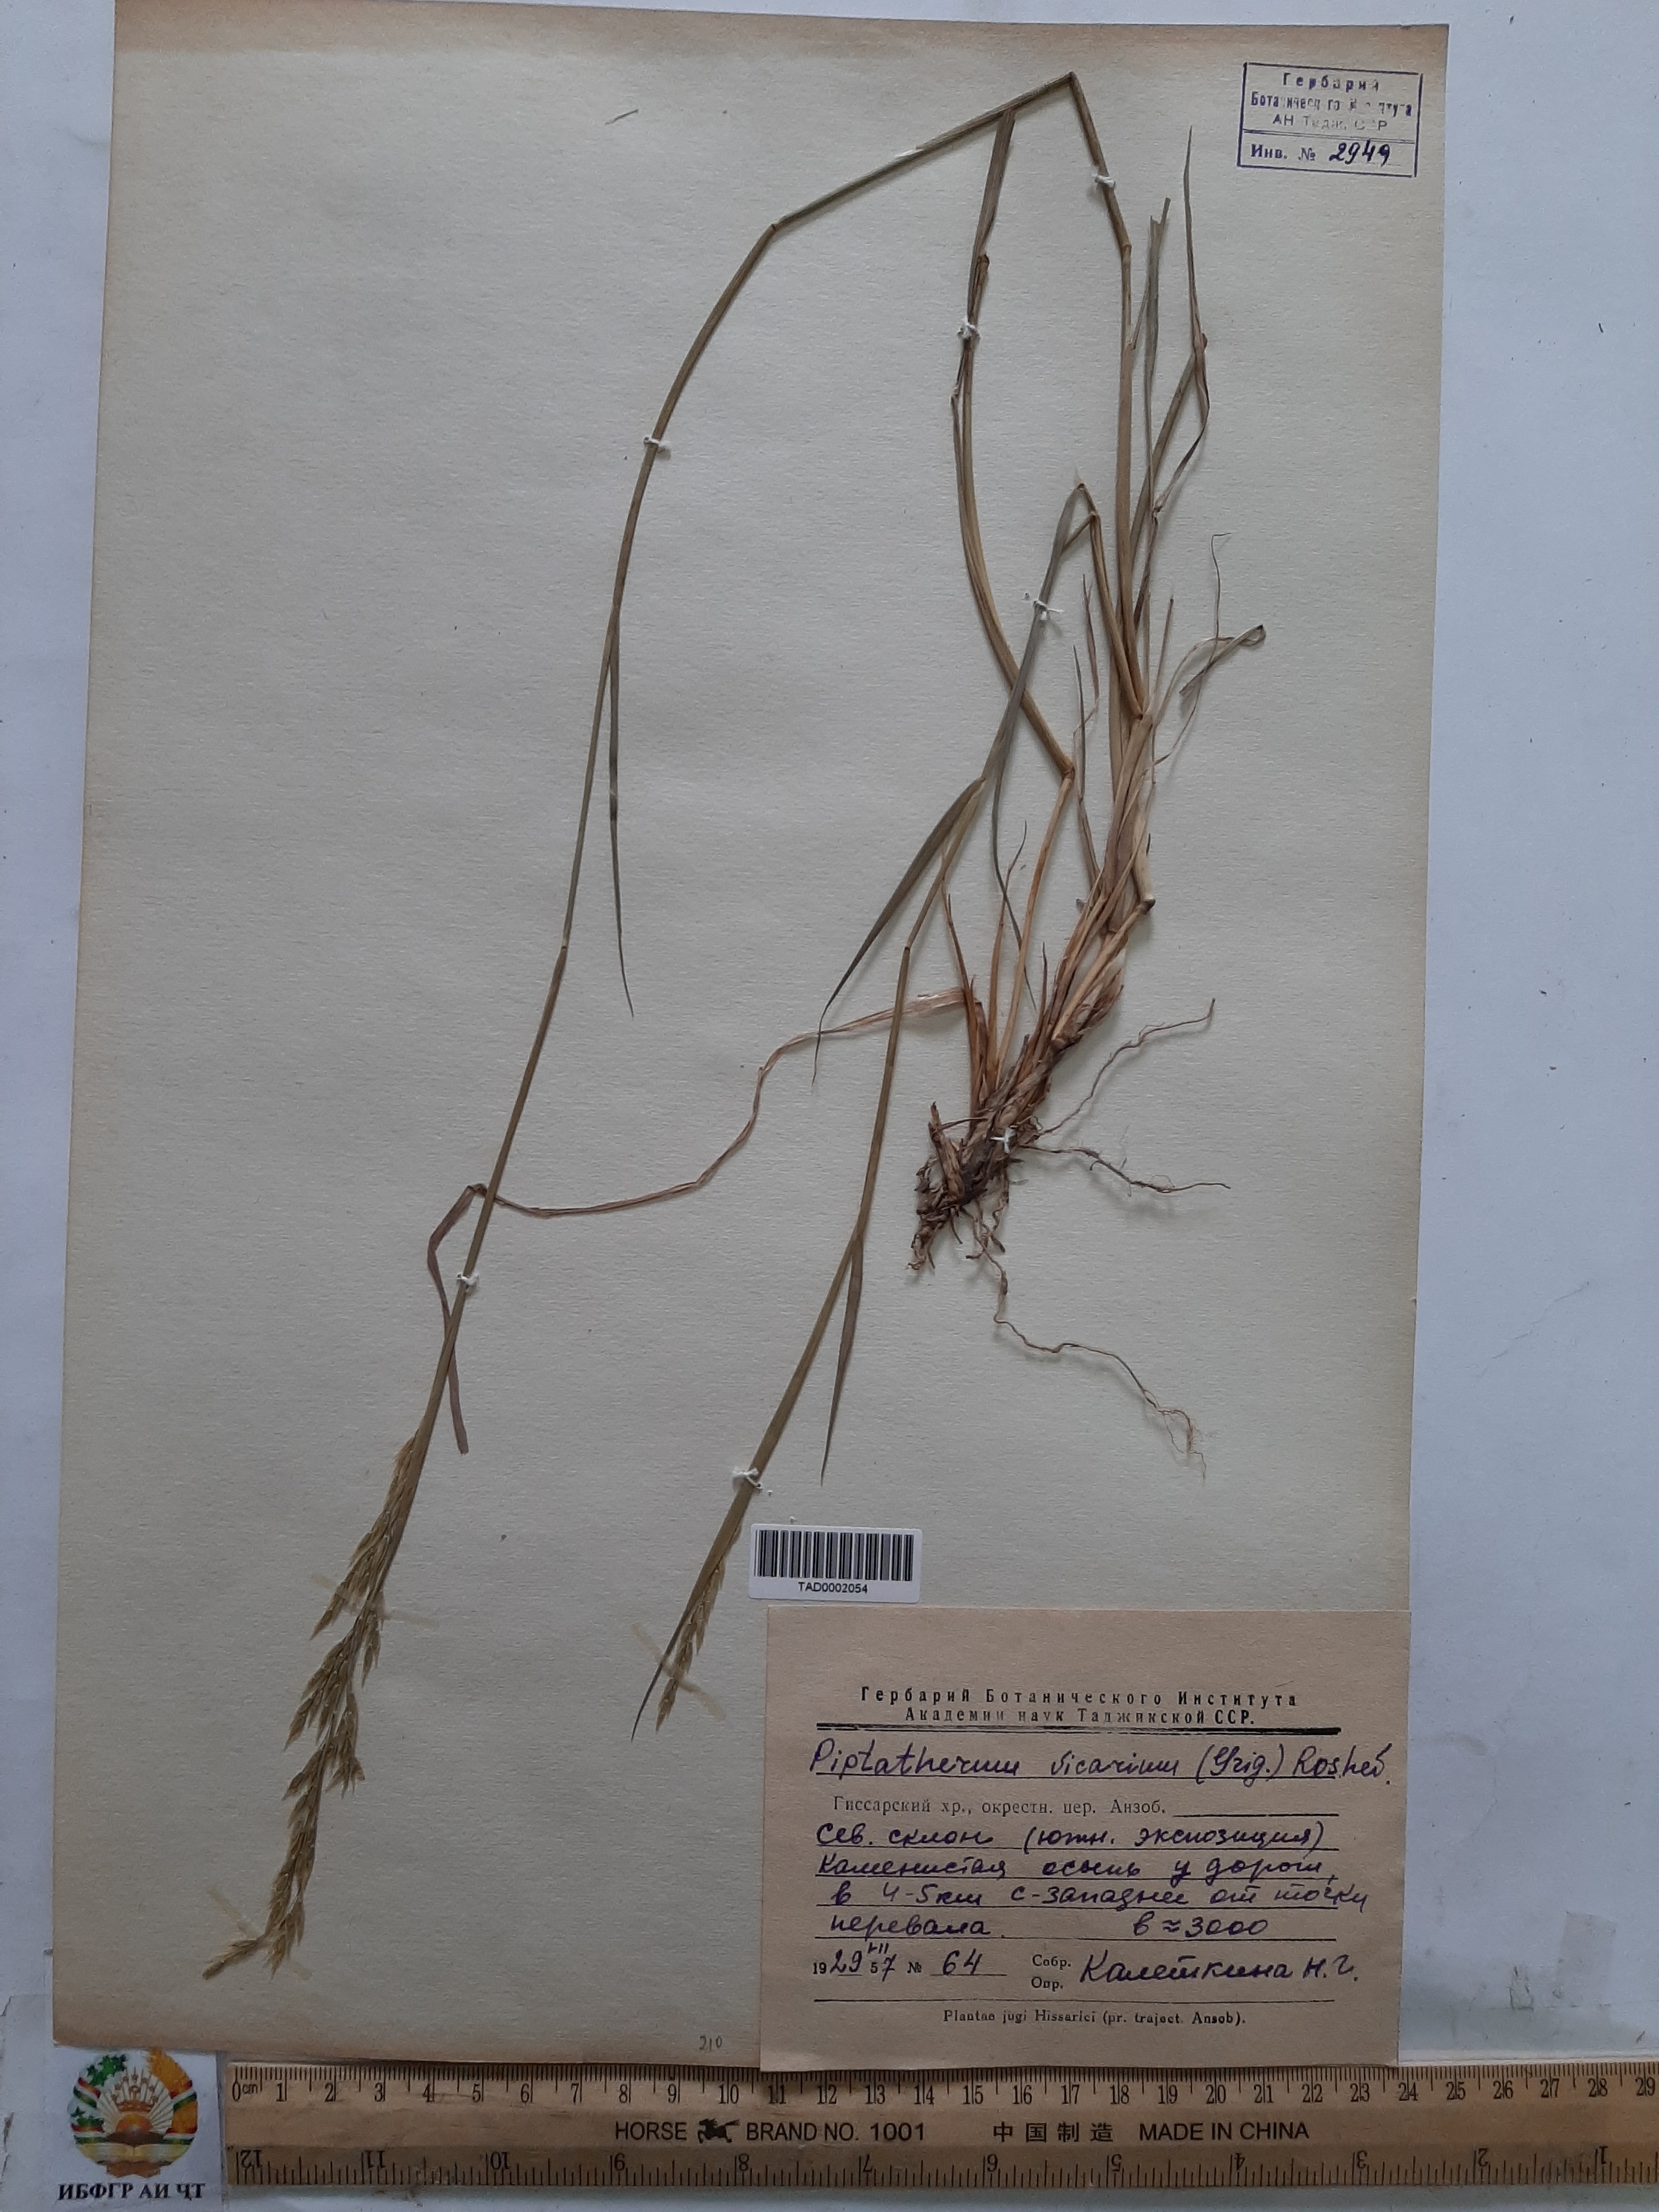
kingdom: Plantae
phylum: Tracheophyta
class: Liliopsida
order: Poales
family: Poaceae
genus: Piptatherum
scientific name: Piptatherum sogdianum
